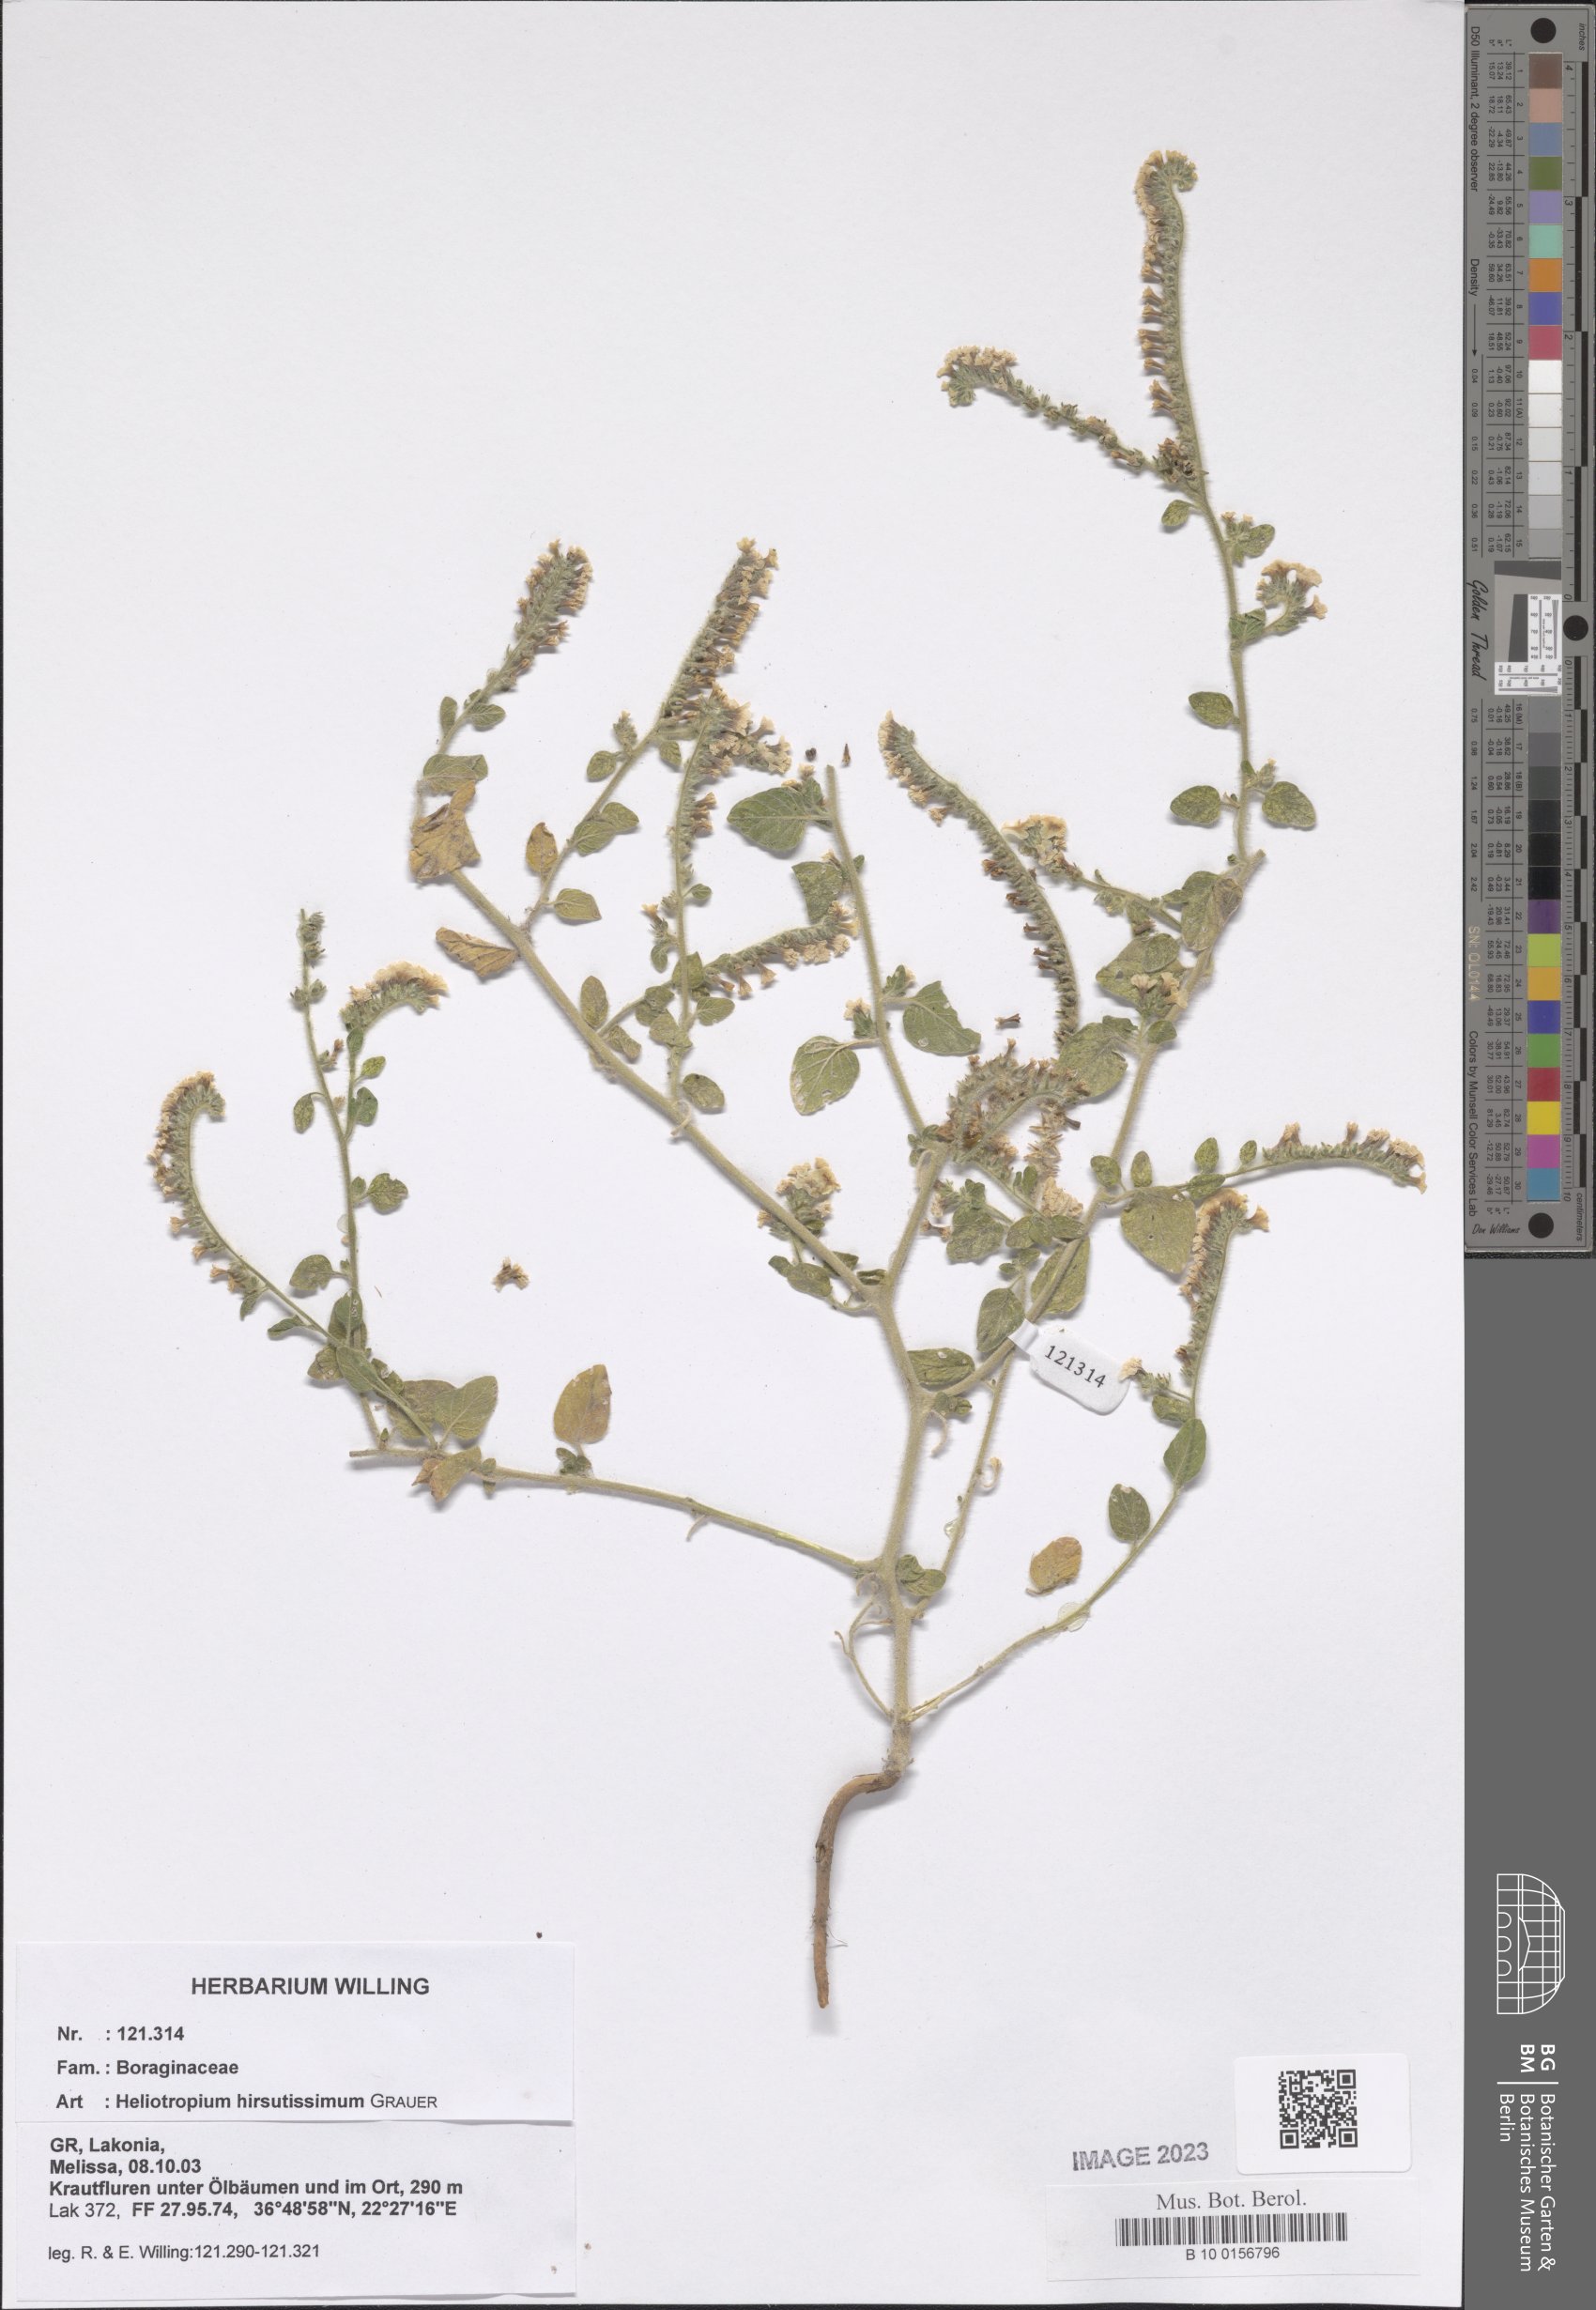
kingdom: Plantae
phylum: Tracheophyta
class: Magnoliopsida
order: Boraginales
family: Heliotropiaceae
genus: Heliotropium
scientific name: Heliotropium hirsutissimum
